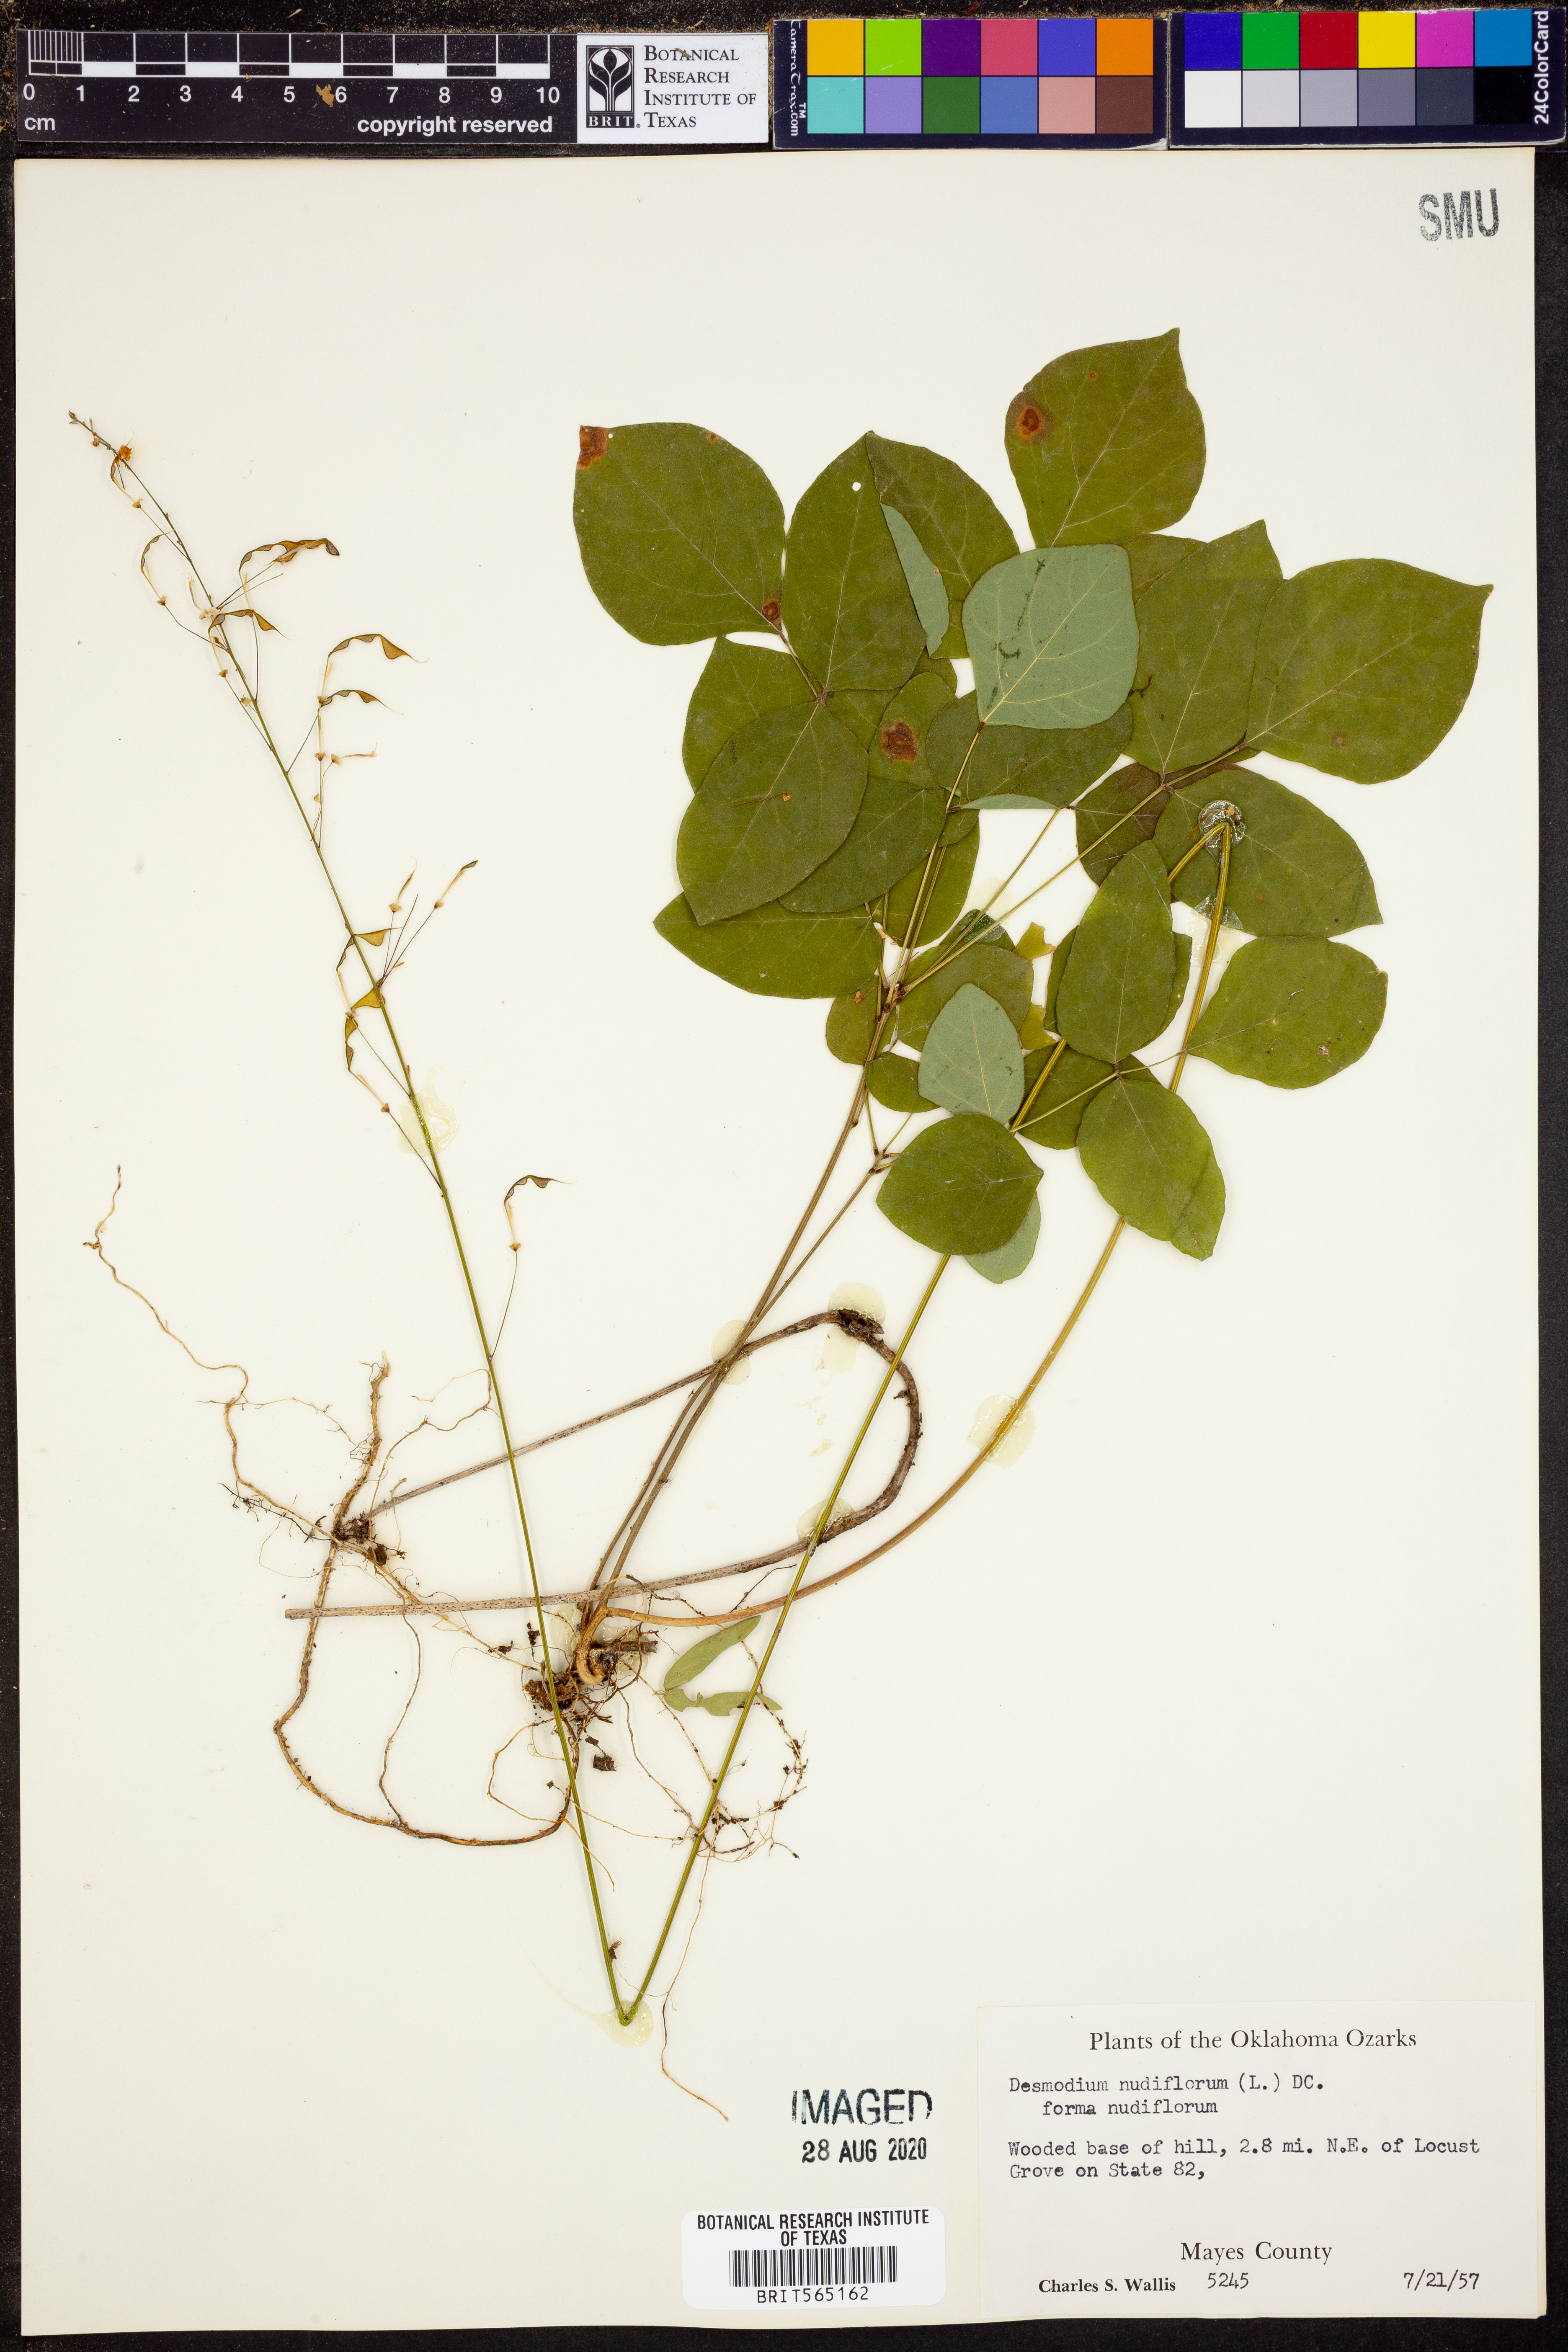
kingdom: Plantae
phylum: Tracheophyta
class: Magnoliopsida
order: Fabales
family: Fabaceae
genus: Hylodesmum
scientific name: Hylodesmum nudiflorum
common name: Bare-stemmed tick-trefoil
